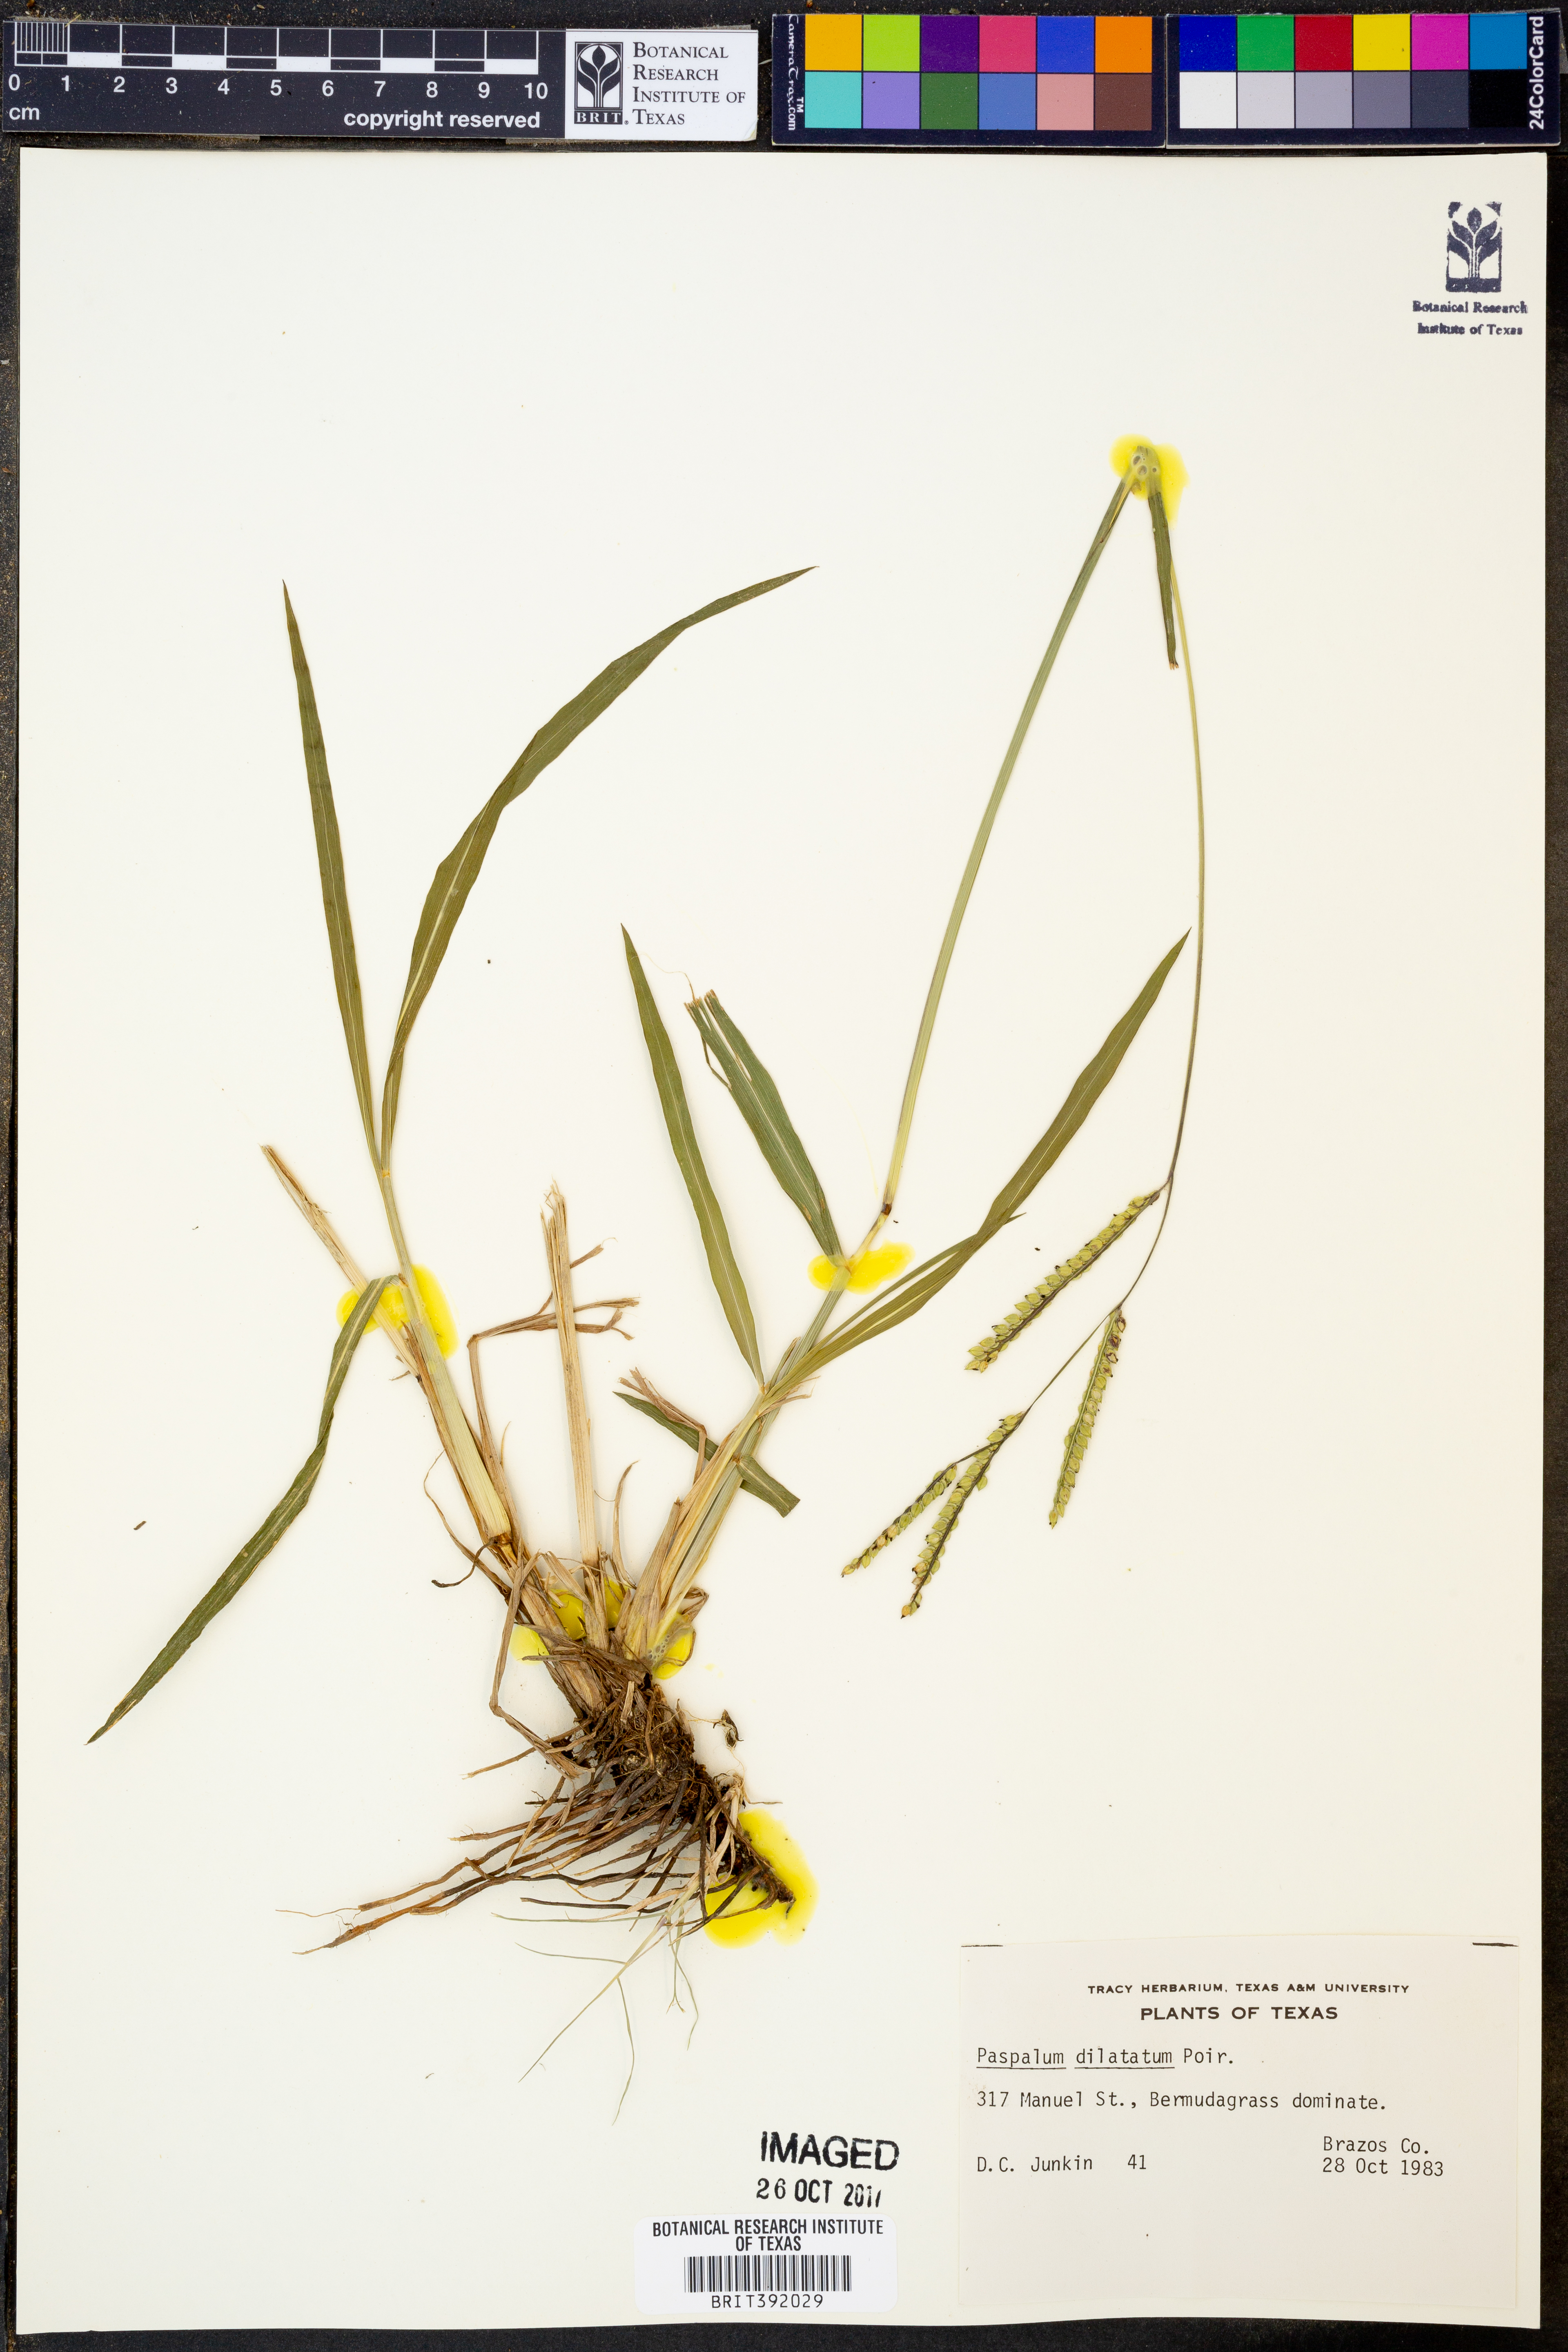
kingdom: Plantae
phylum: Tracheophyta
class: Liliopsida
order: Poales
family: Poaceae
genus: Paspalum
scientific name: Paspalum dilatatum
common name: Dallisgrass
